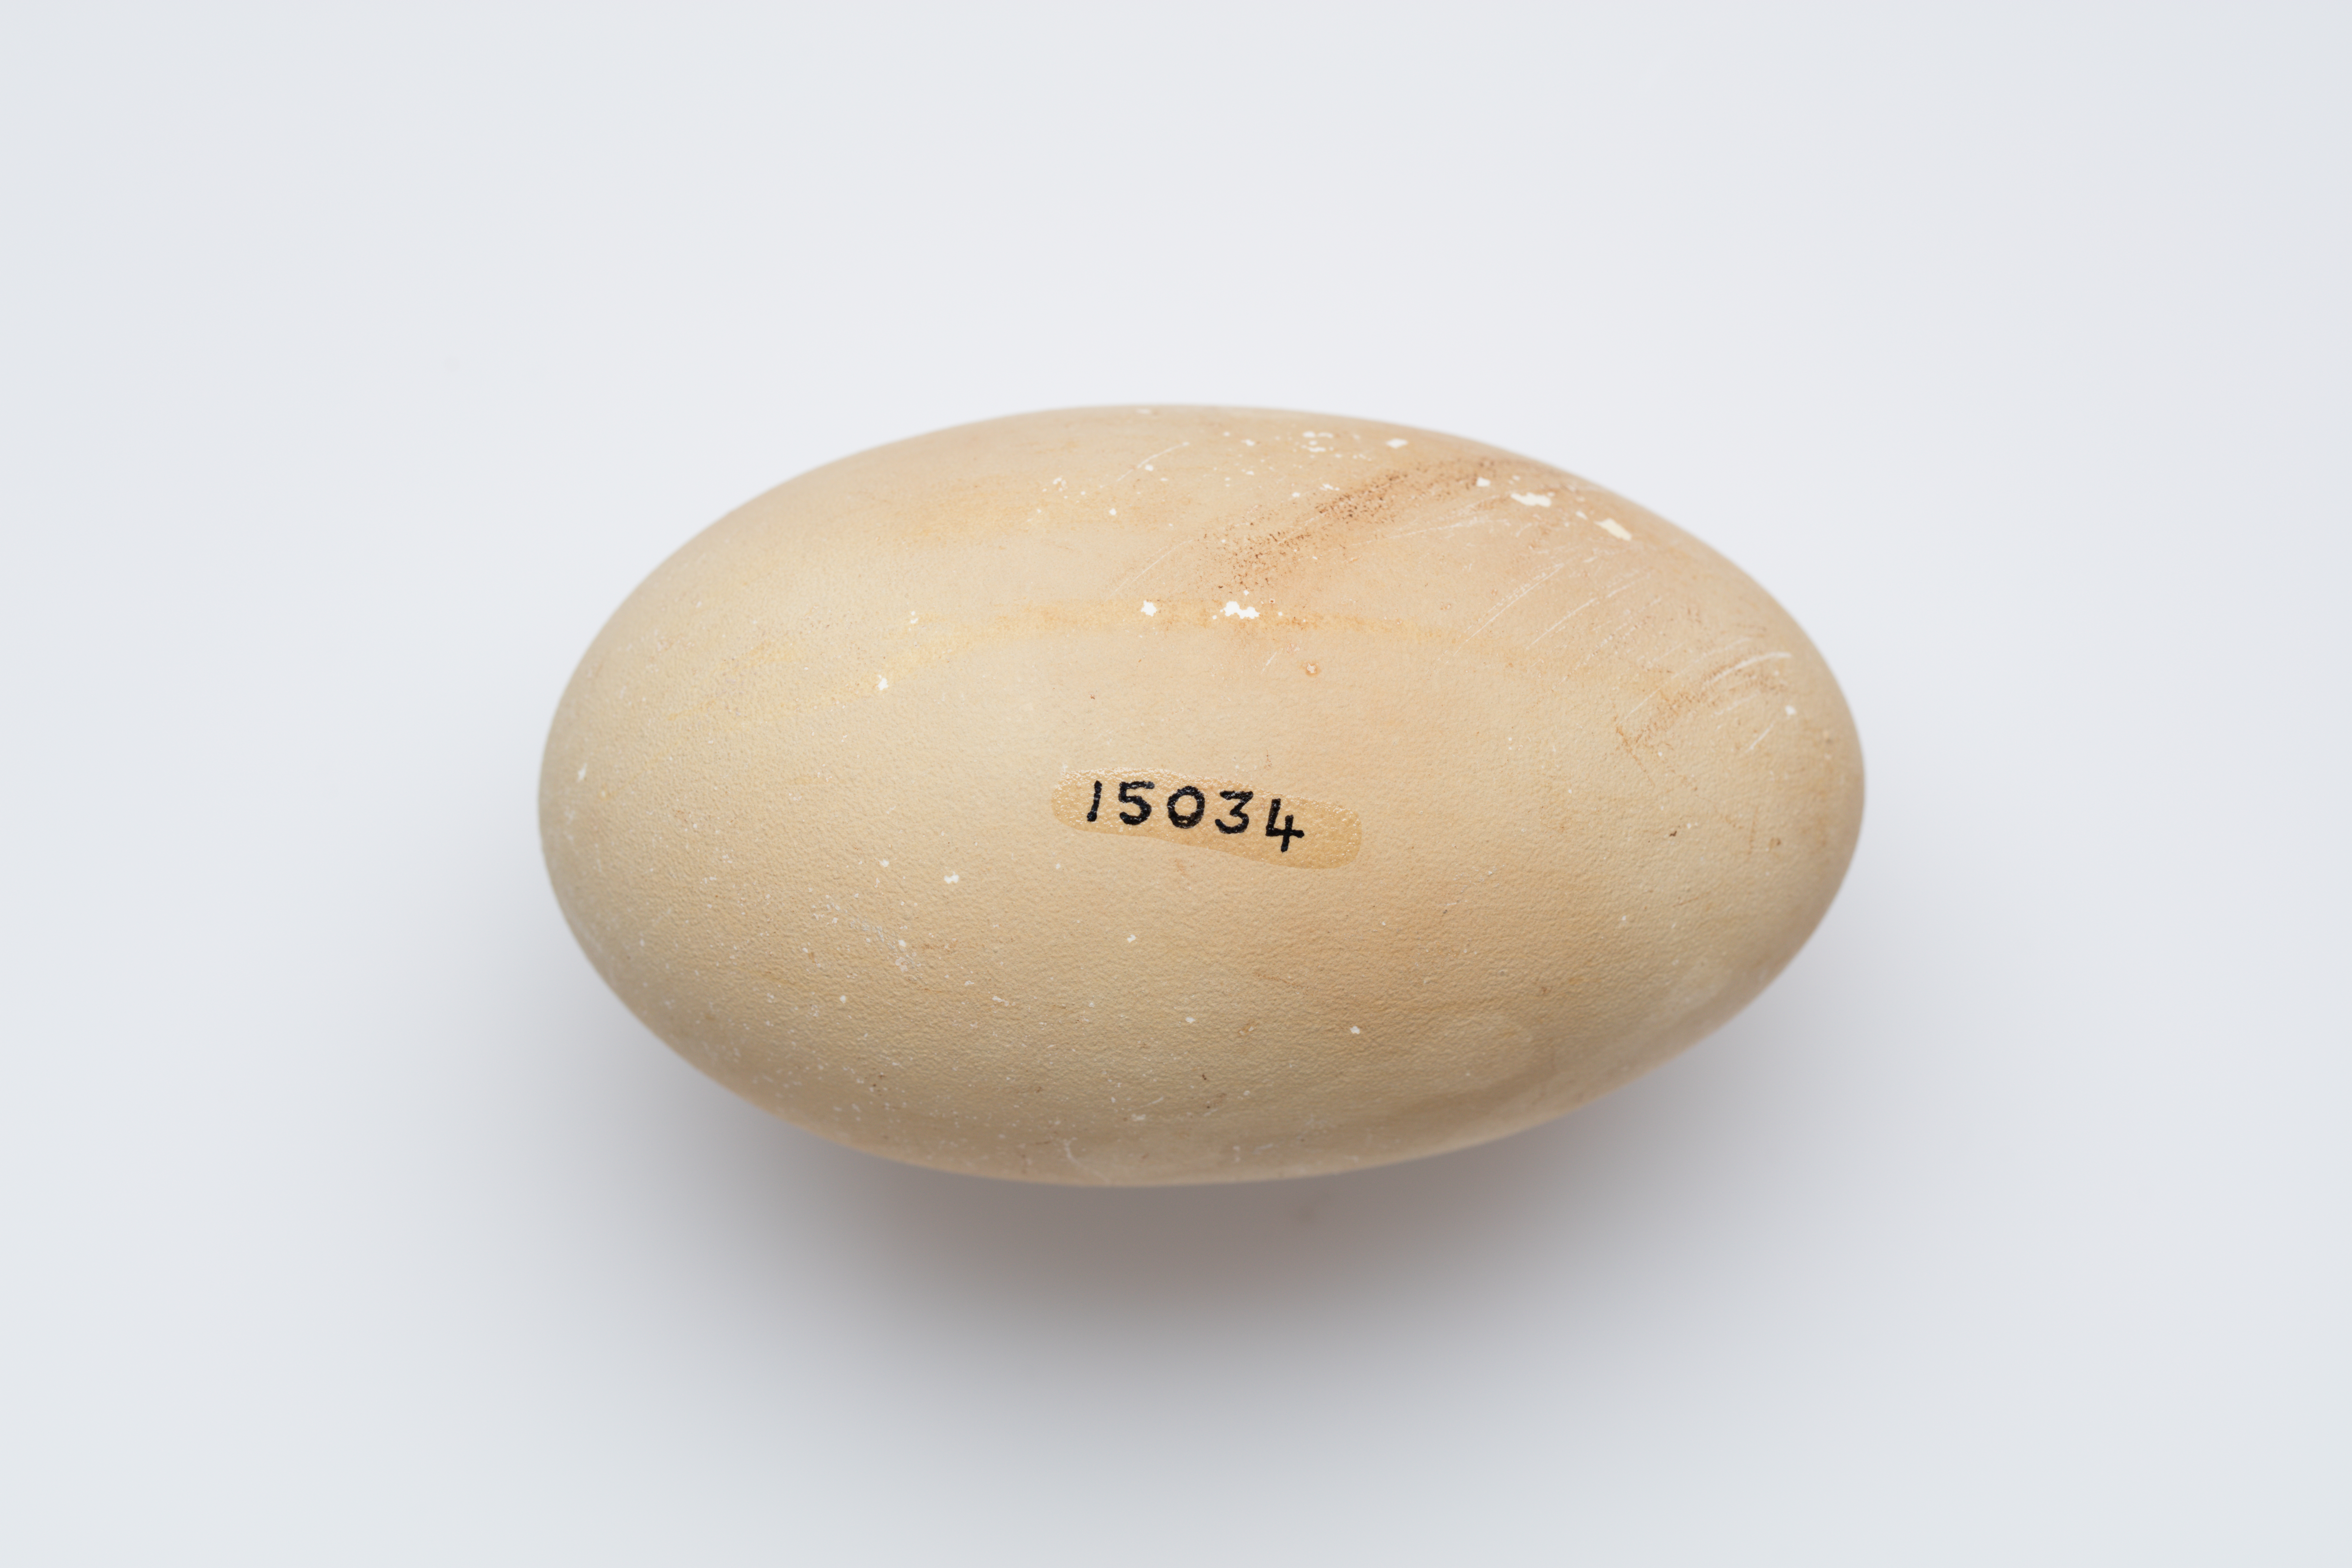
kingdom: Animalia
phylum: Chordata
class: Aves
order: Galliformes
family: Megapodiidae
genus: Megapodius
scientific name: Megapodius layardi
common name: Vanuatu megapode
